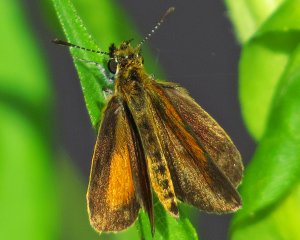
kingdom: Animalia
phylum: Arthropoda
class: Insecta
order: Lepidoptera
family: Hesperiidae
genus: Ancyloxypha
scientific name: Ancyloxypha numitor
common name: Least Skipper
